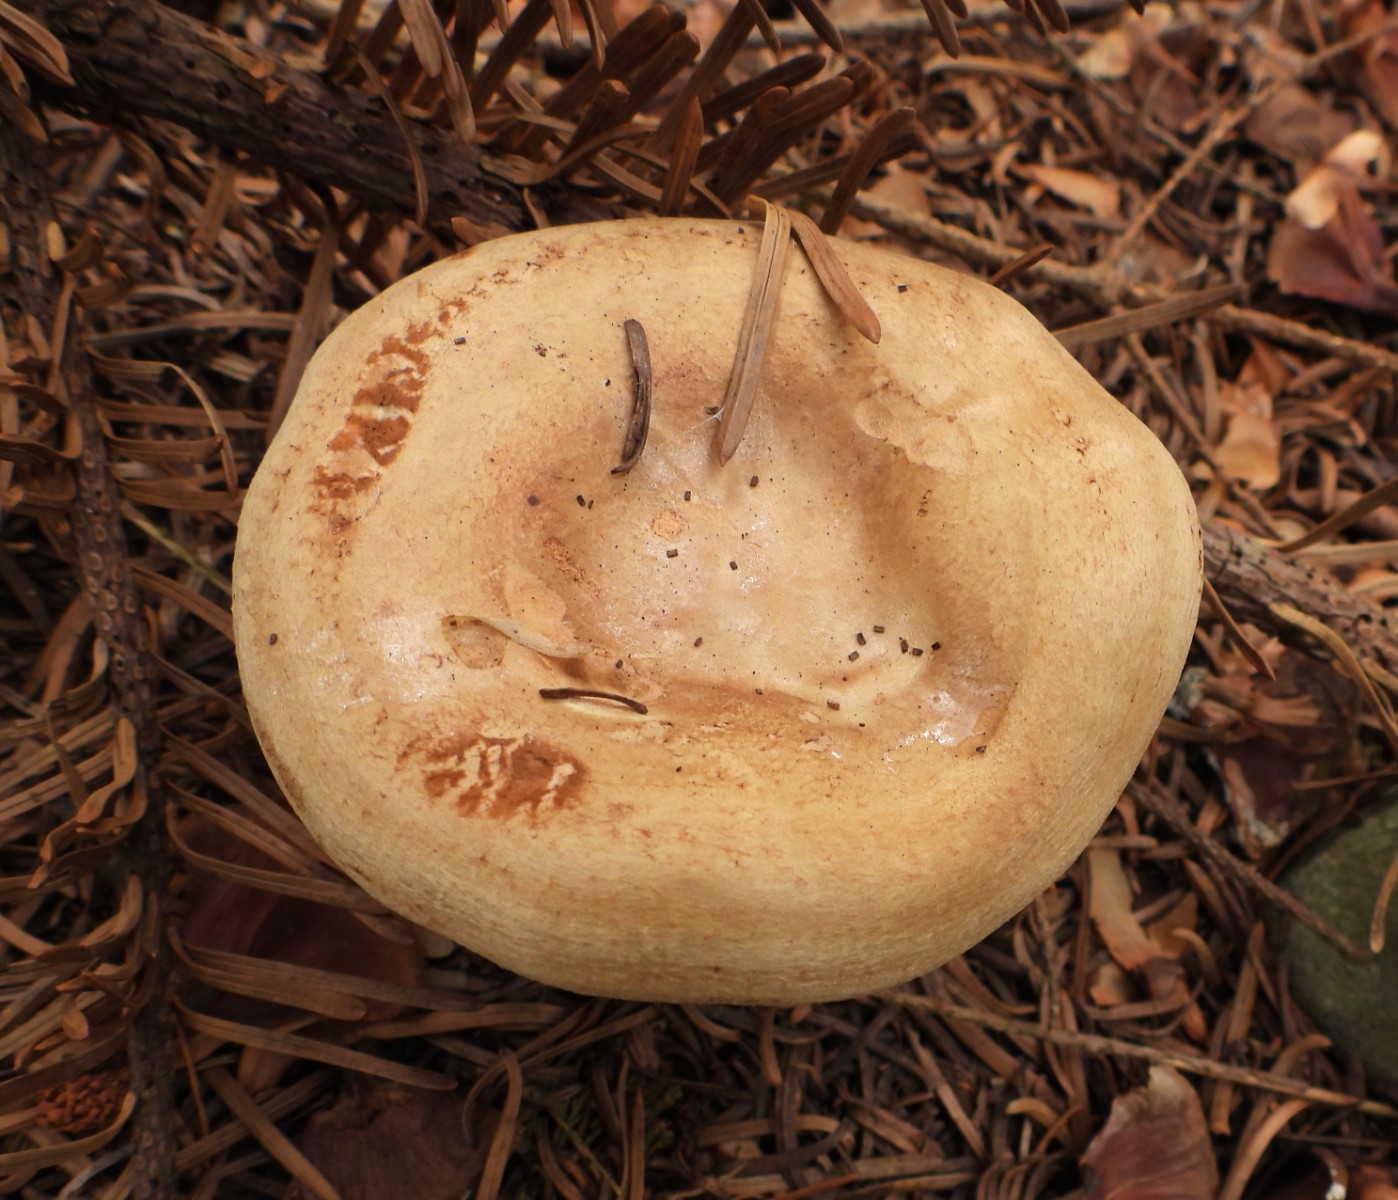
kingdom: Fungi
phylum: Basidiomycota
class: Agaricomycetes
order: Boletales
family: Paxillaceae
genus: Paxillus
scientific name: Paxillus involutus
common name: almindelig netbladhat
